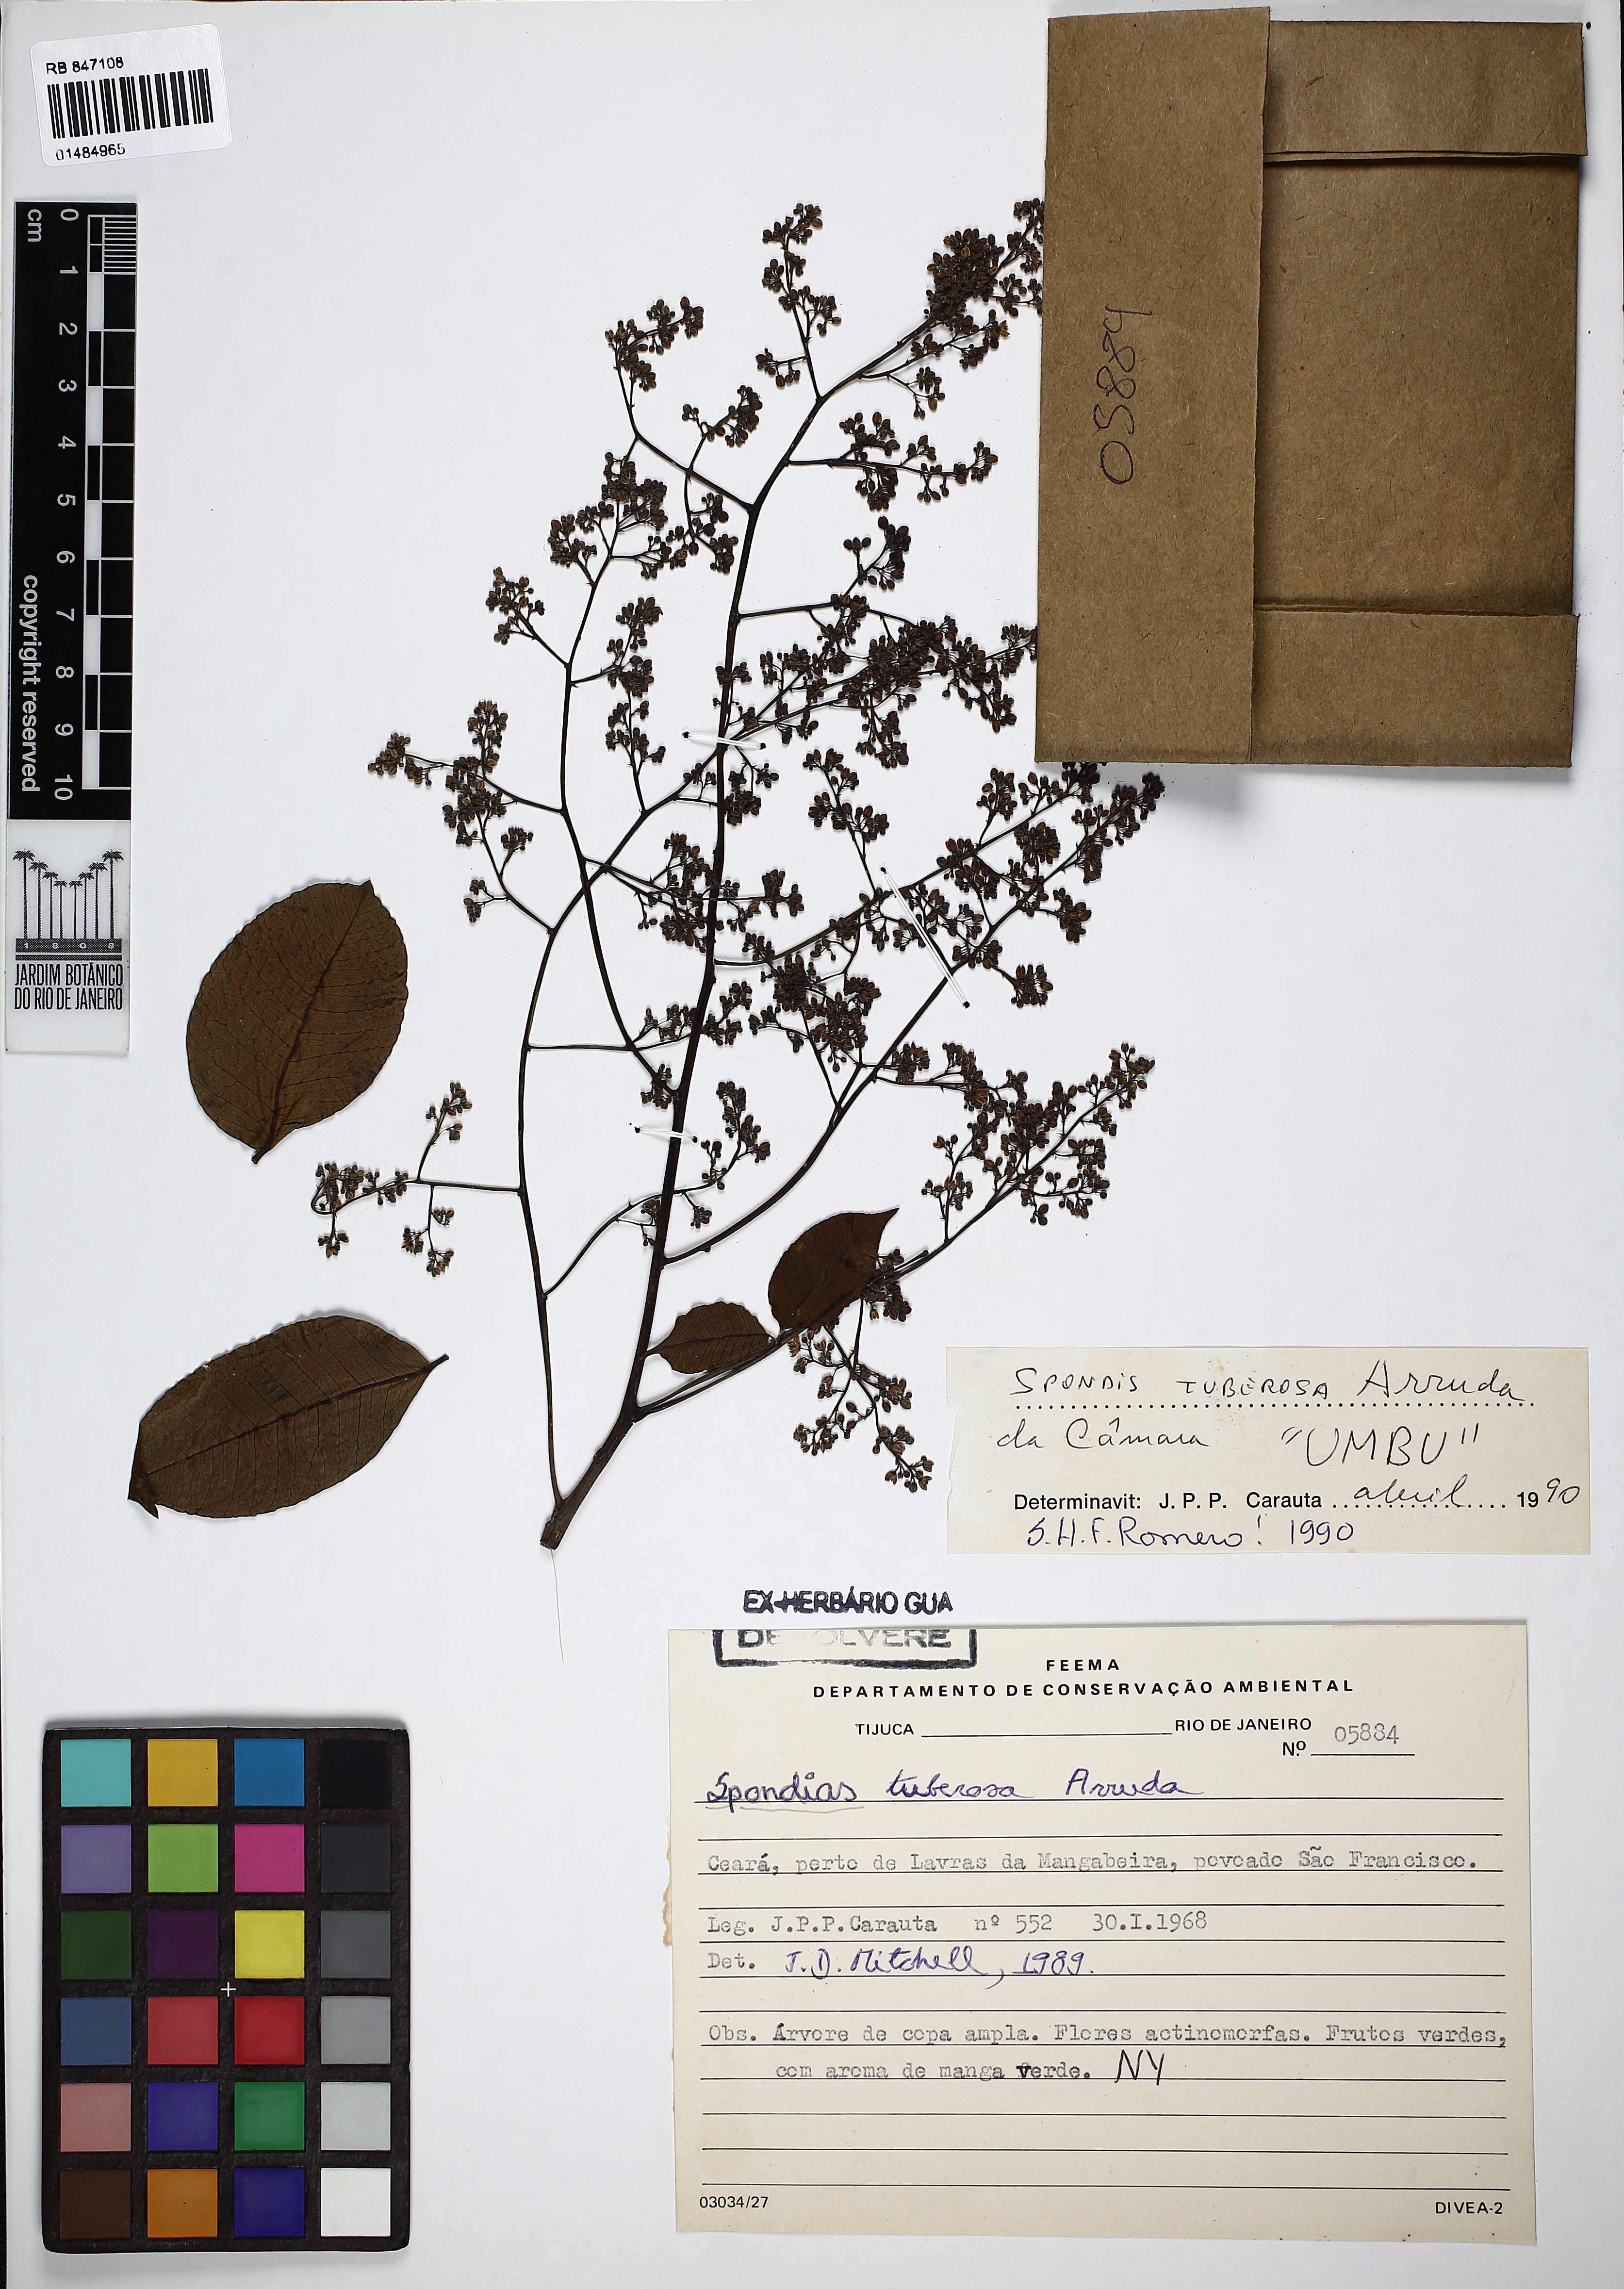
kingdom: Plantae
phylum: Tracheophyta
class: Magnoliopsida
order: Sapindales
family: Anacardiaceae
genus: Spondias
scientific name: Spondias tuberosa
